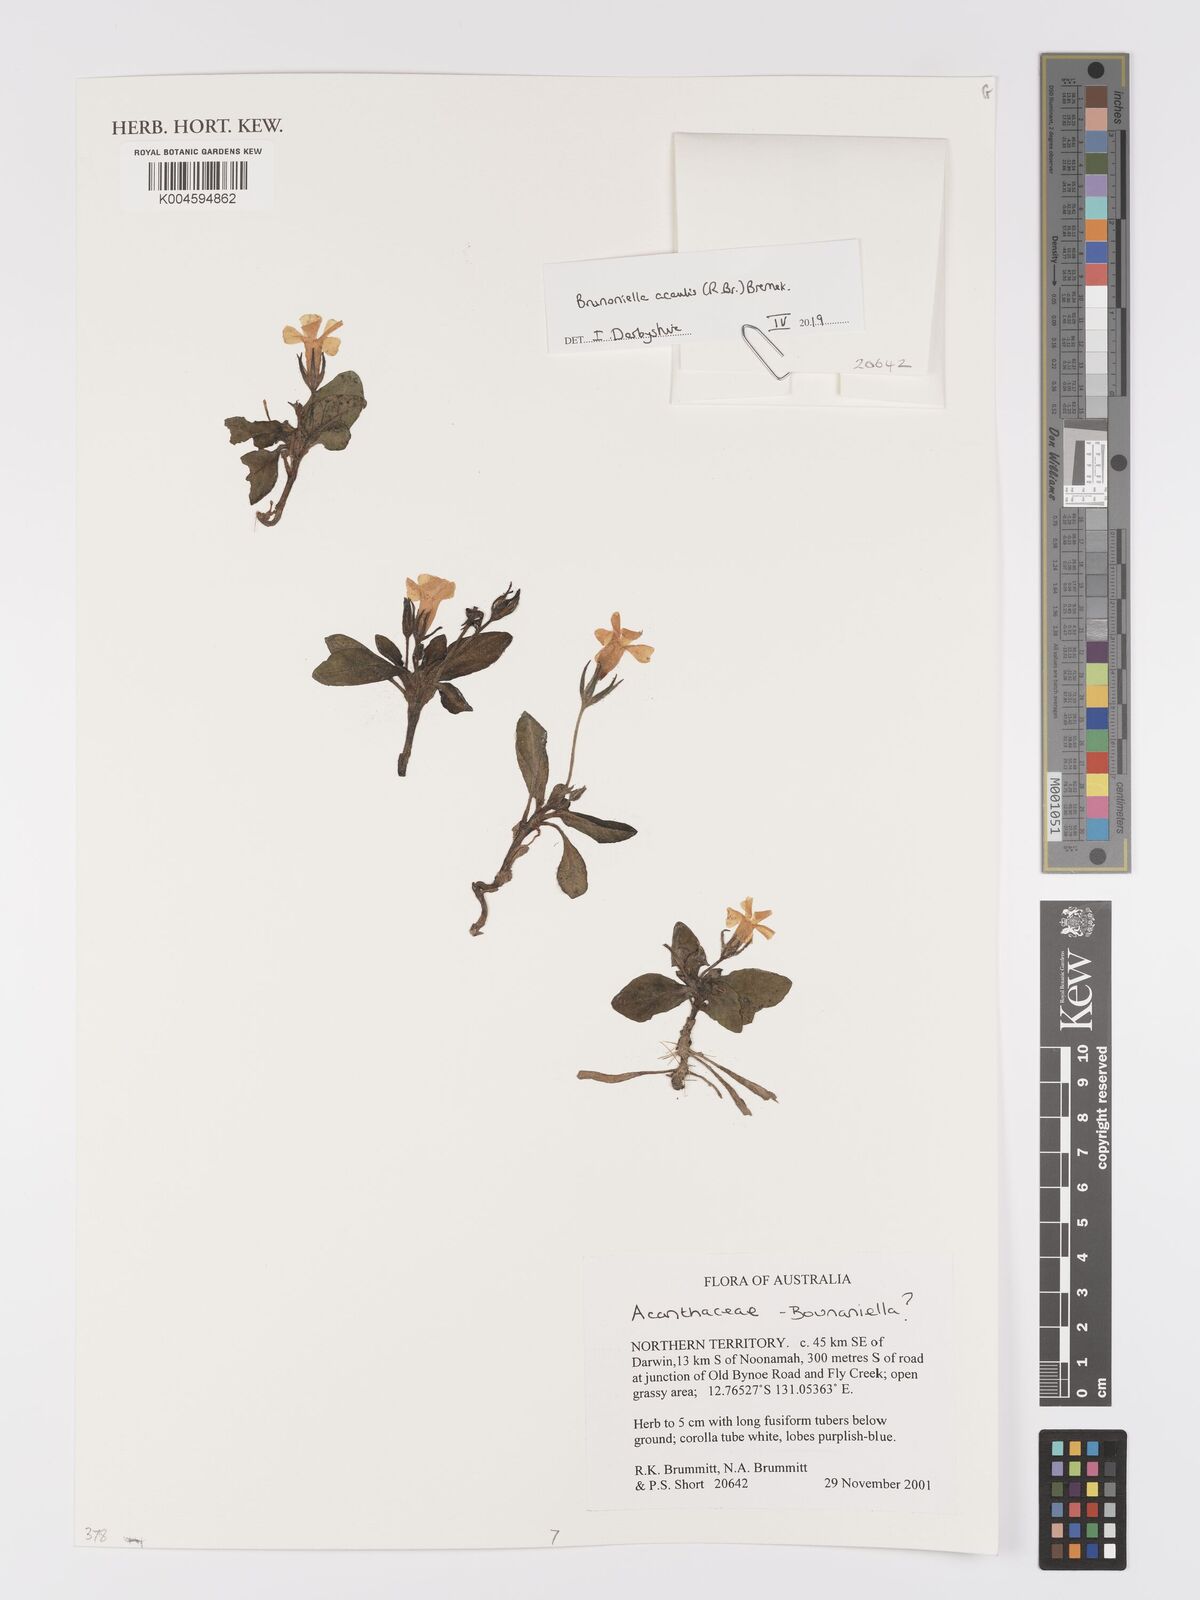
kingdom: Plantae
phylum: Tracheophyta
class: Magnoliopsida
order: Lamiales
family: Acanthaceae
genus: Brunoniella
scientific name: Brunoniella acaulis
